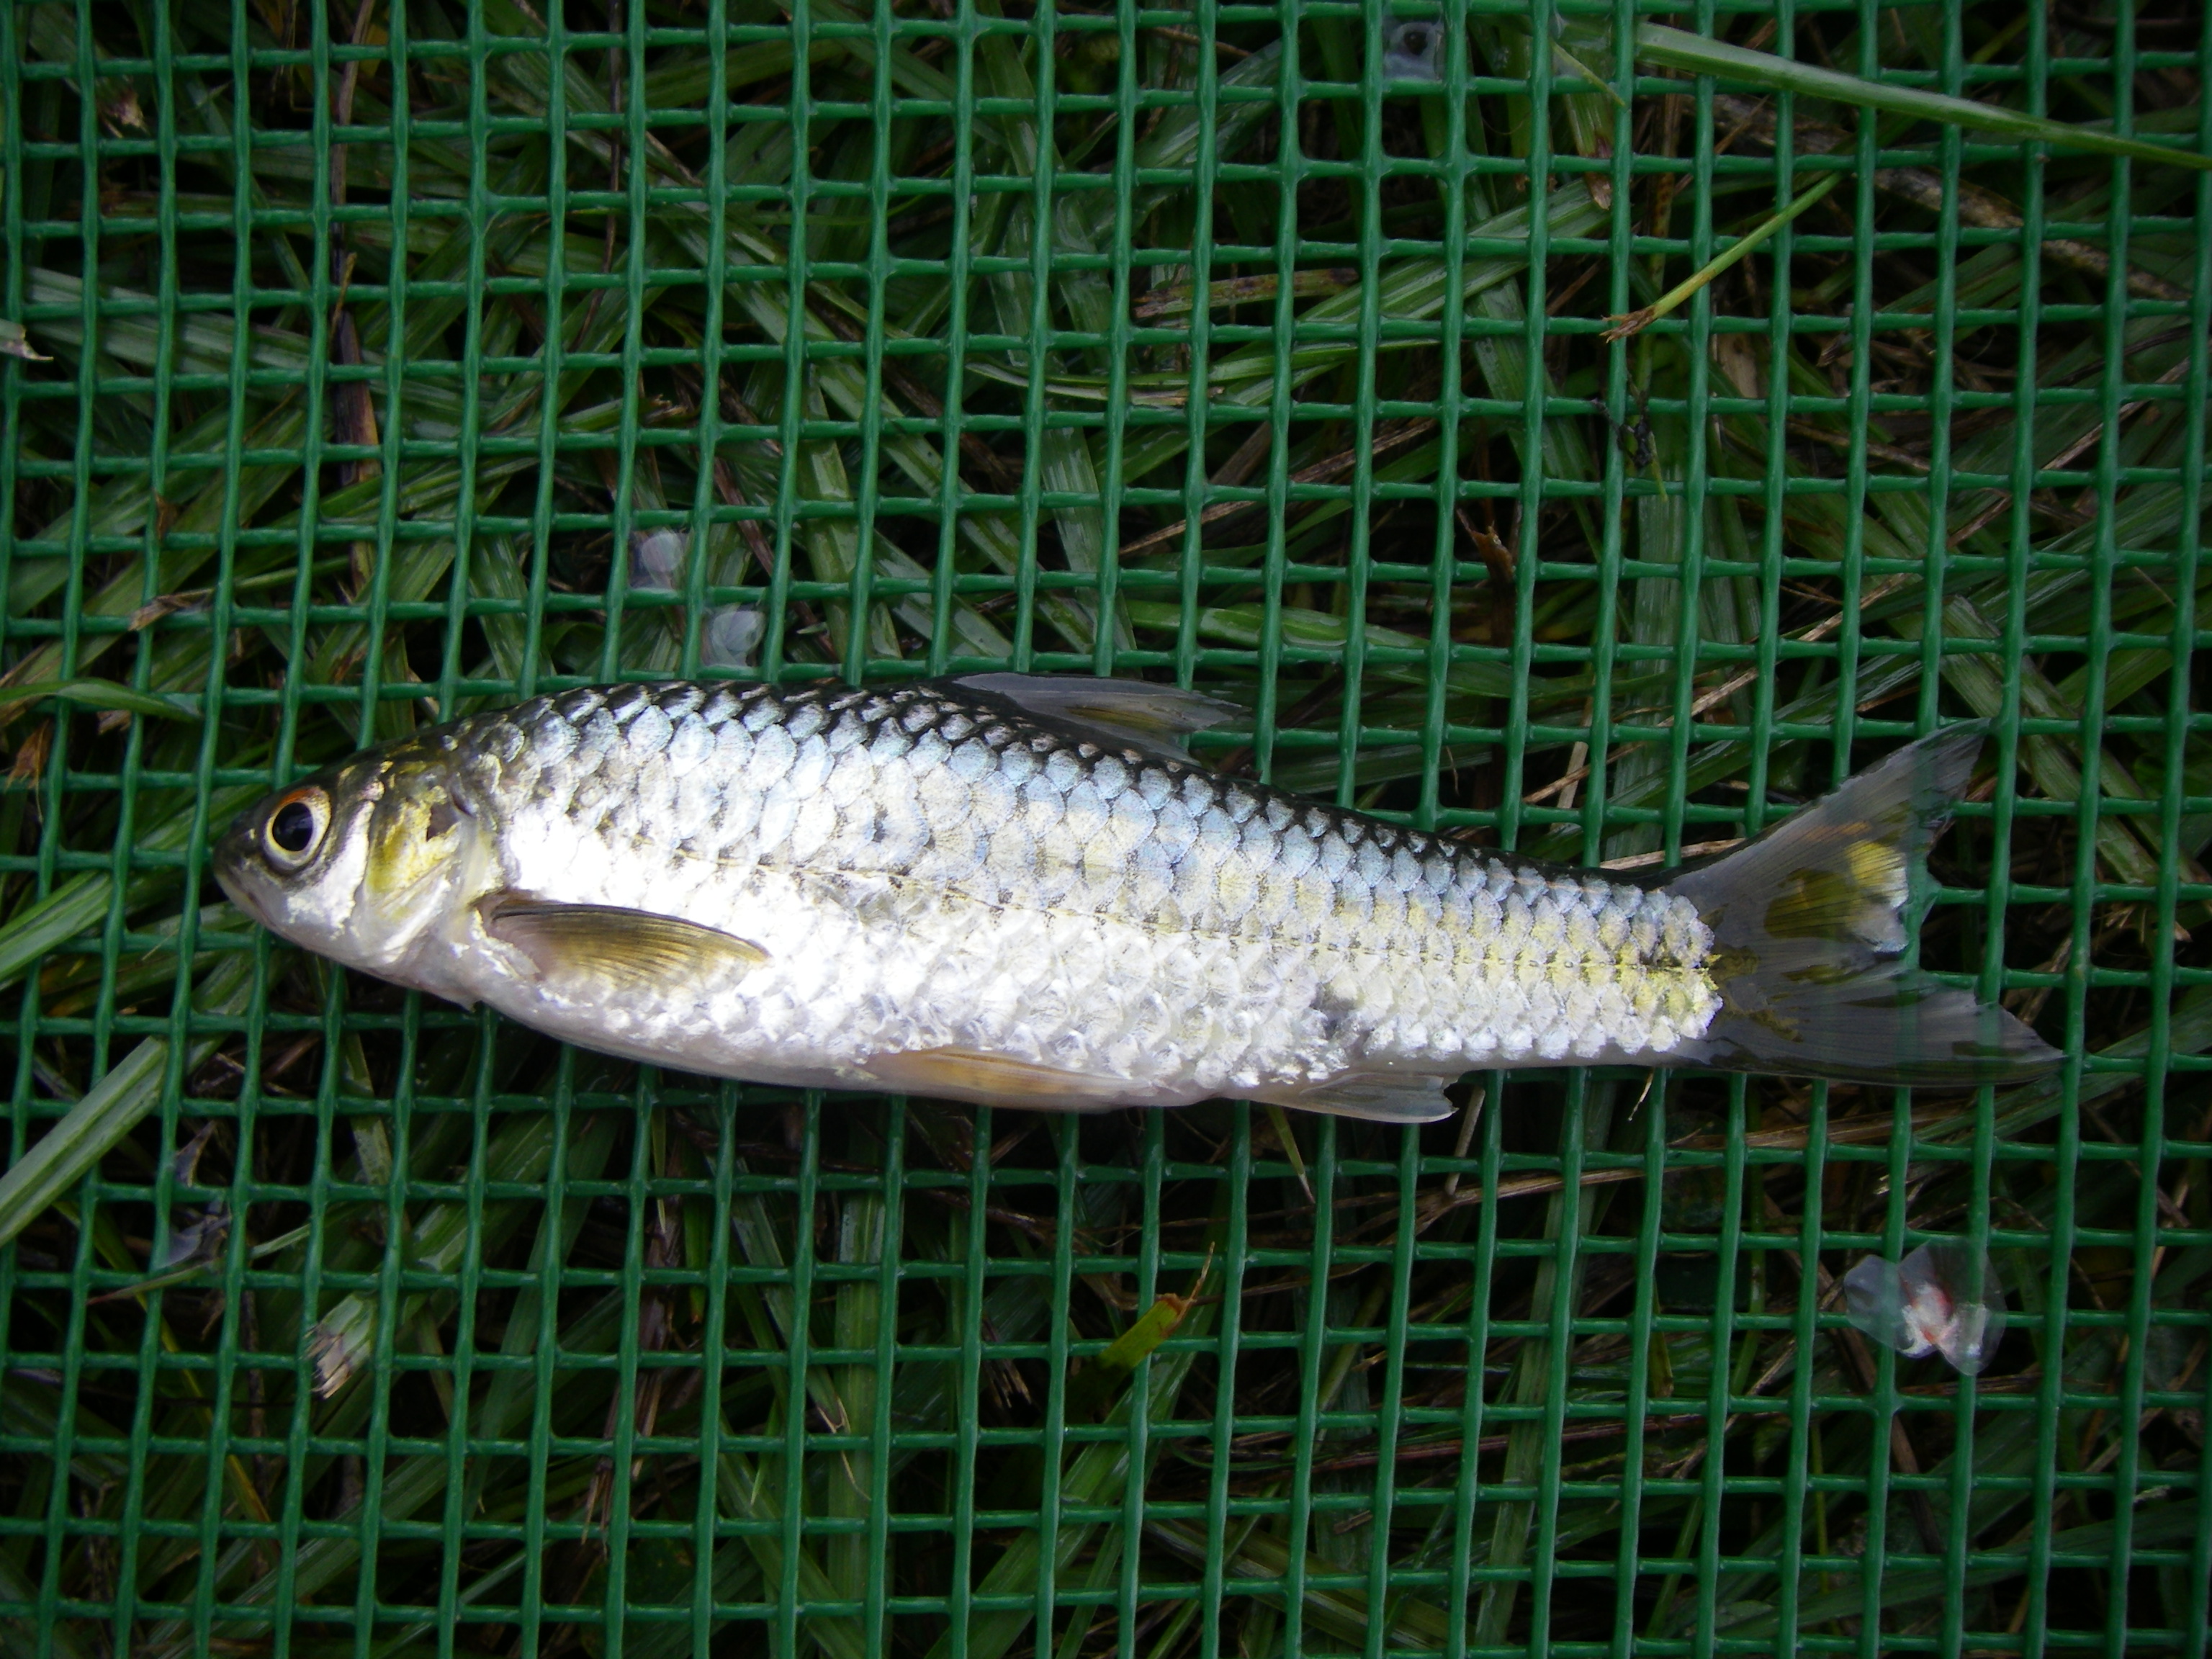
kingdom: Animalia
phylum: Chordata
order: Cypriniformes
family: Cyprinidae
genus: Enteromius
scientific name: Enteromius trimaculatus
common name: Threespot barb
